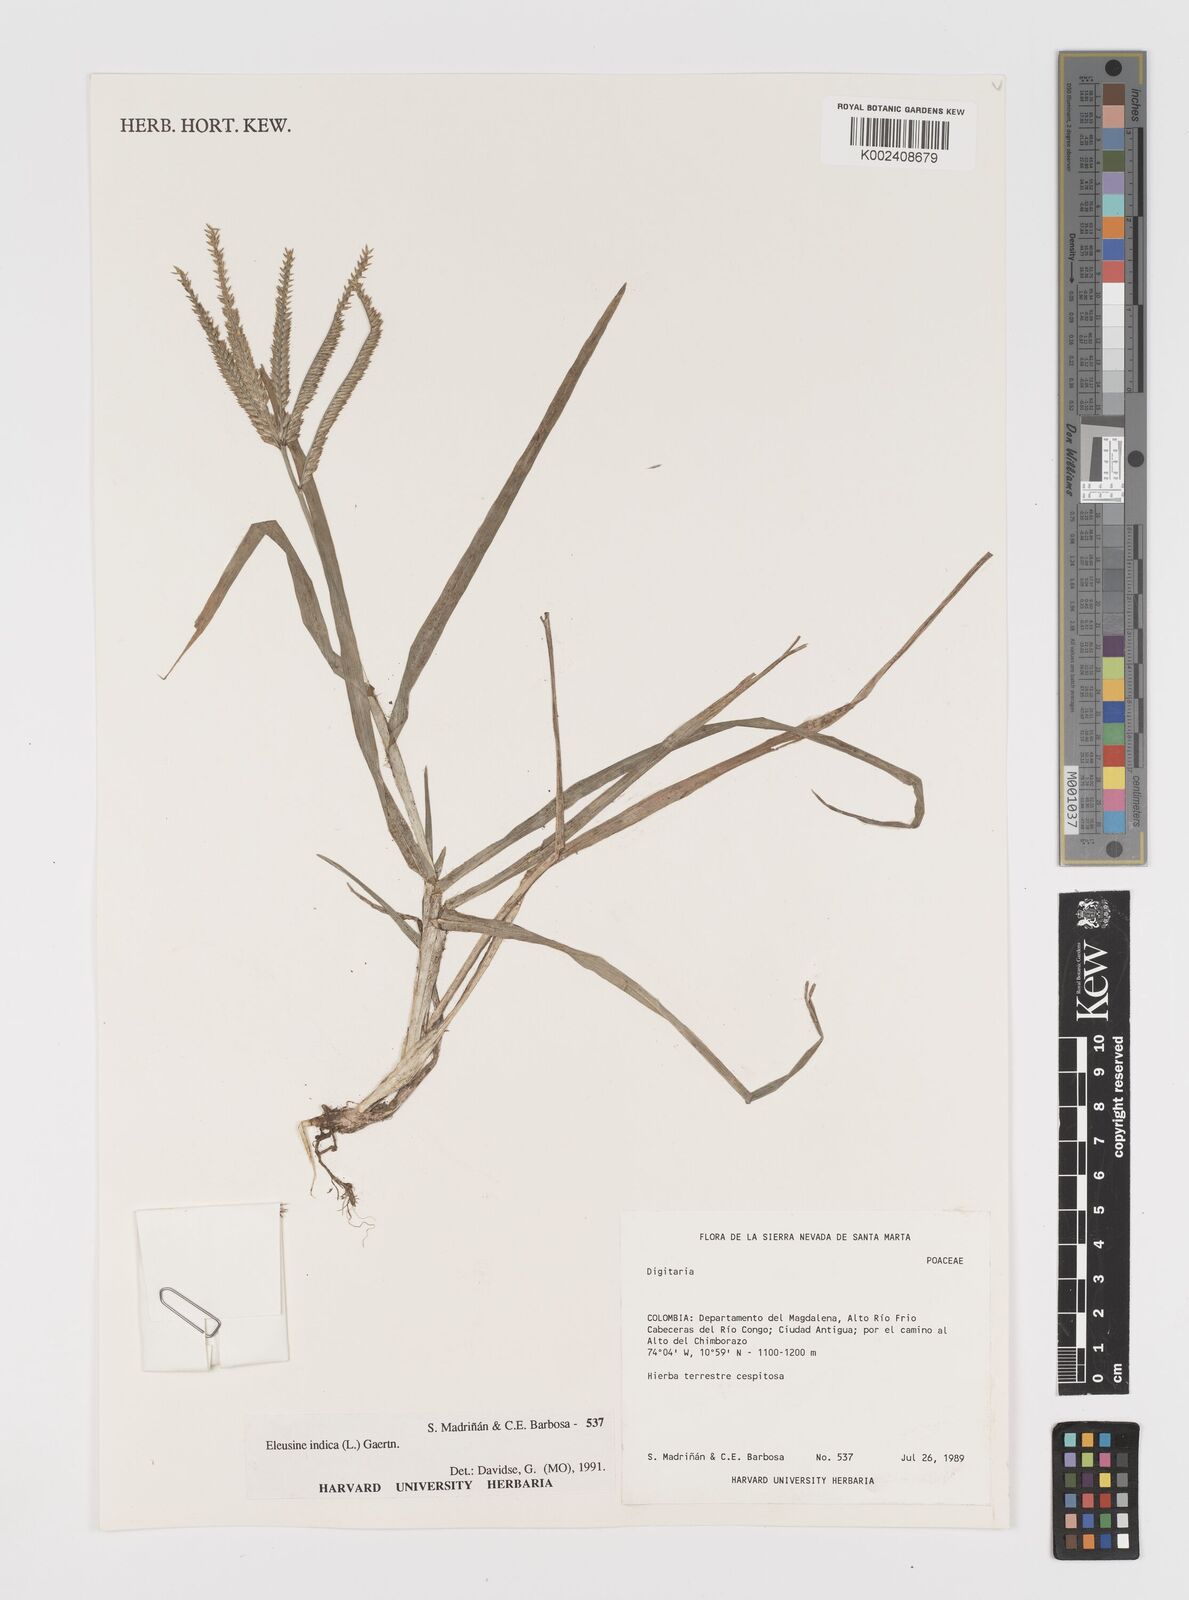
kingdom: Plantae
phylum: Tracheophyta
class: Liliopsida
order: Poales
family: Poaceae
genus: Eleusine
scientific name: Eleusine indica
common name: Yard-grass
